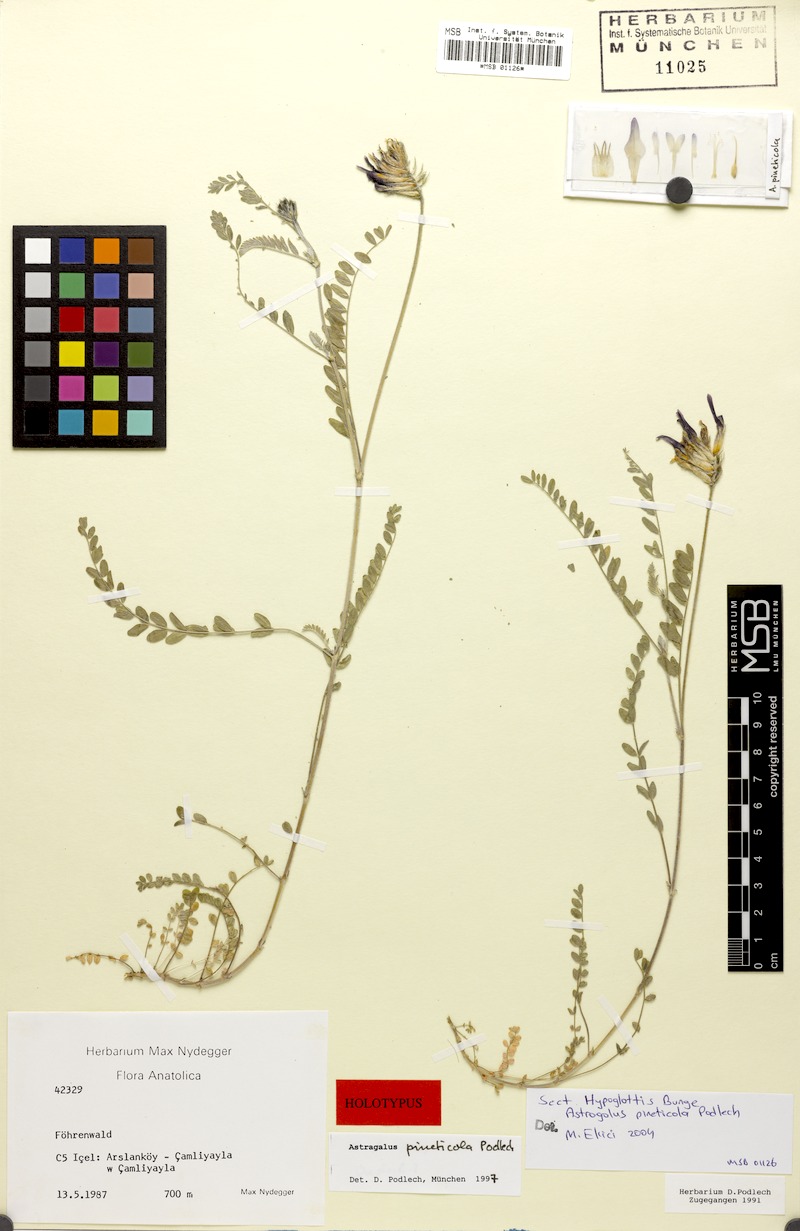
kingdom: Plantae
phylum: Tracheophyta
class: Magnoliopsida
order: Fabales
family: Fabaceae
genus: Astragalus
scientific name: Astragalus pineticola
